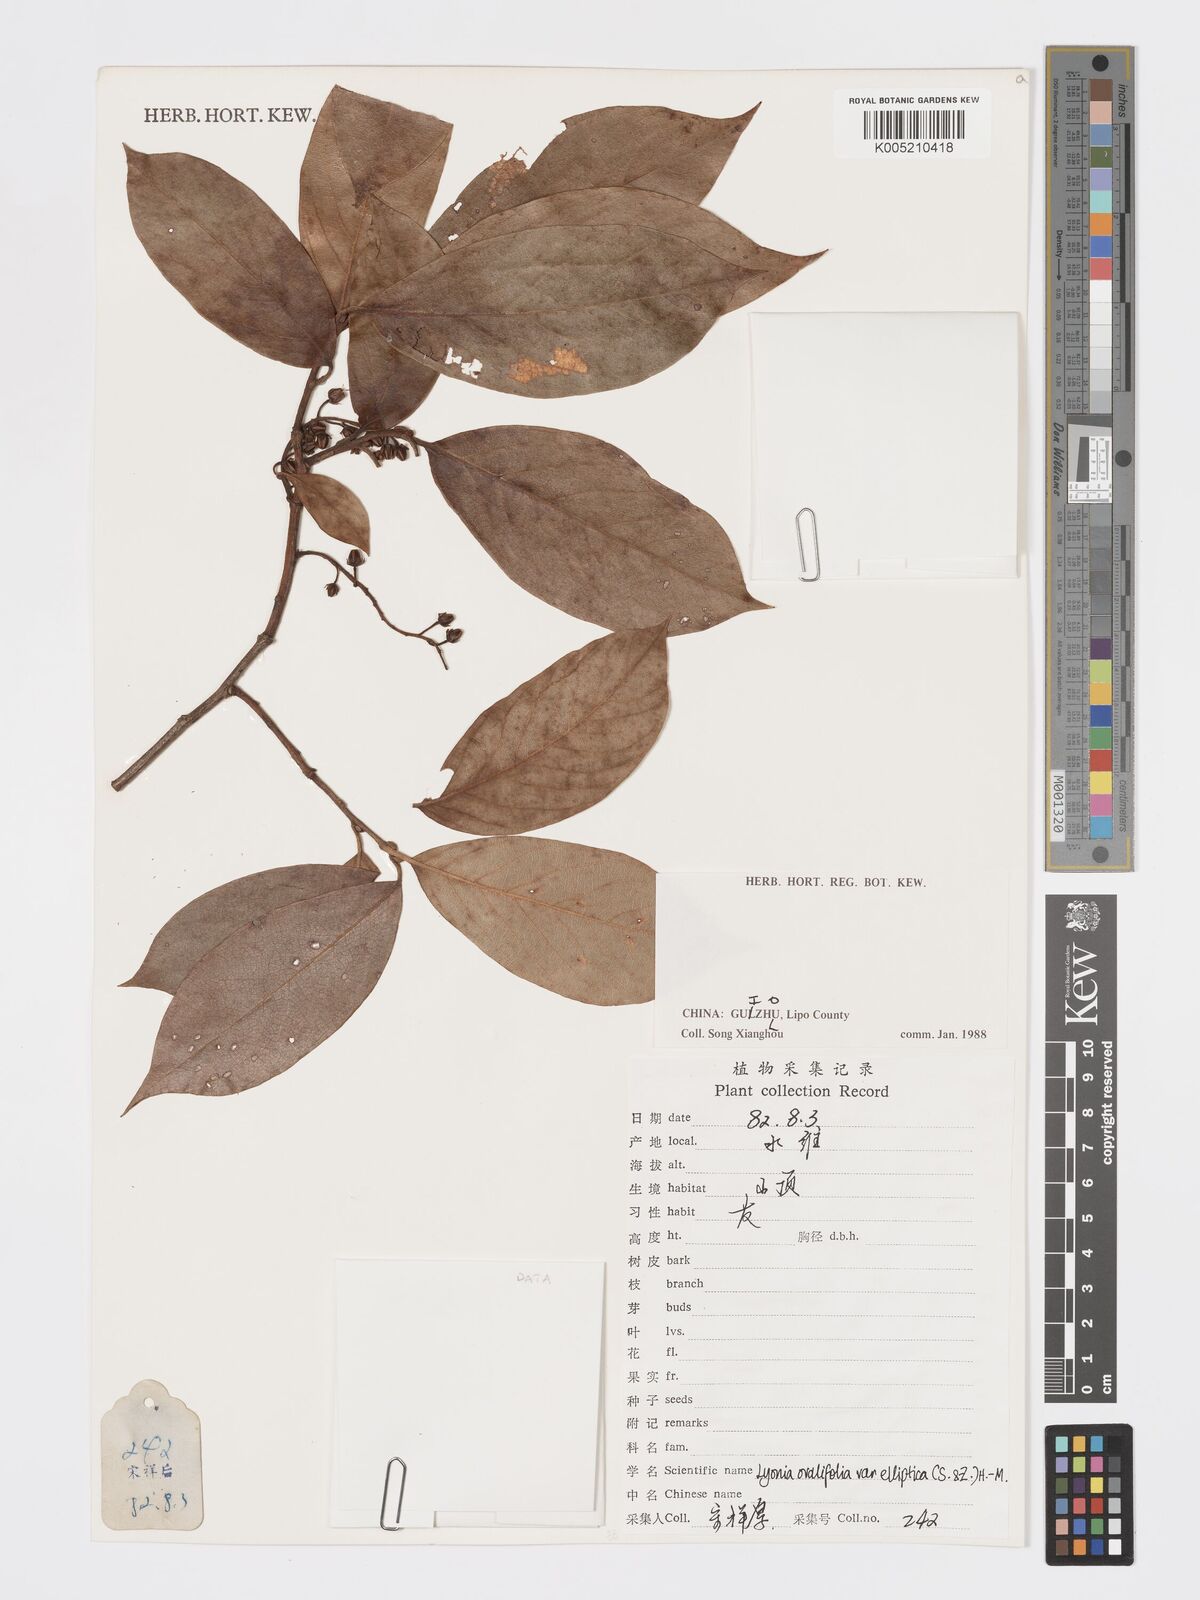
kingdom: Plantae
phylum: Tracheophyta
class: Magnoliopsida
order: Ericales
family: Ericaceae
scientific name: Ericaceae
